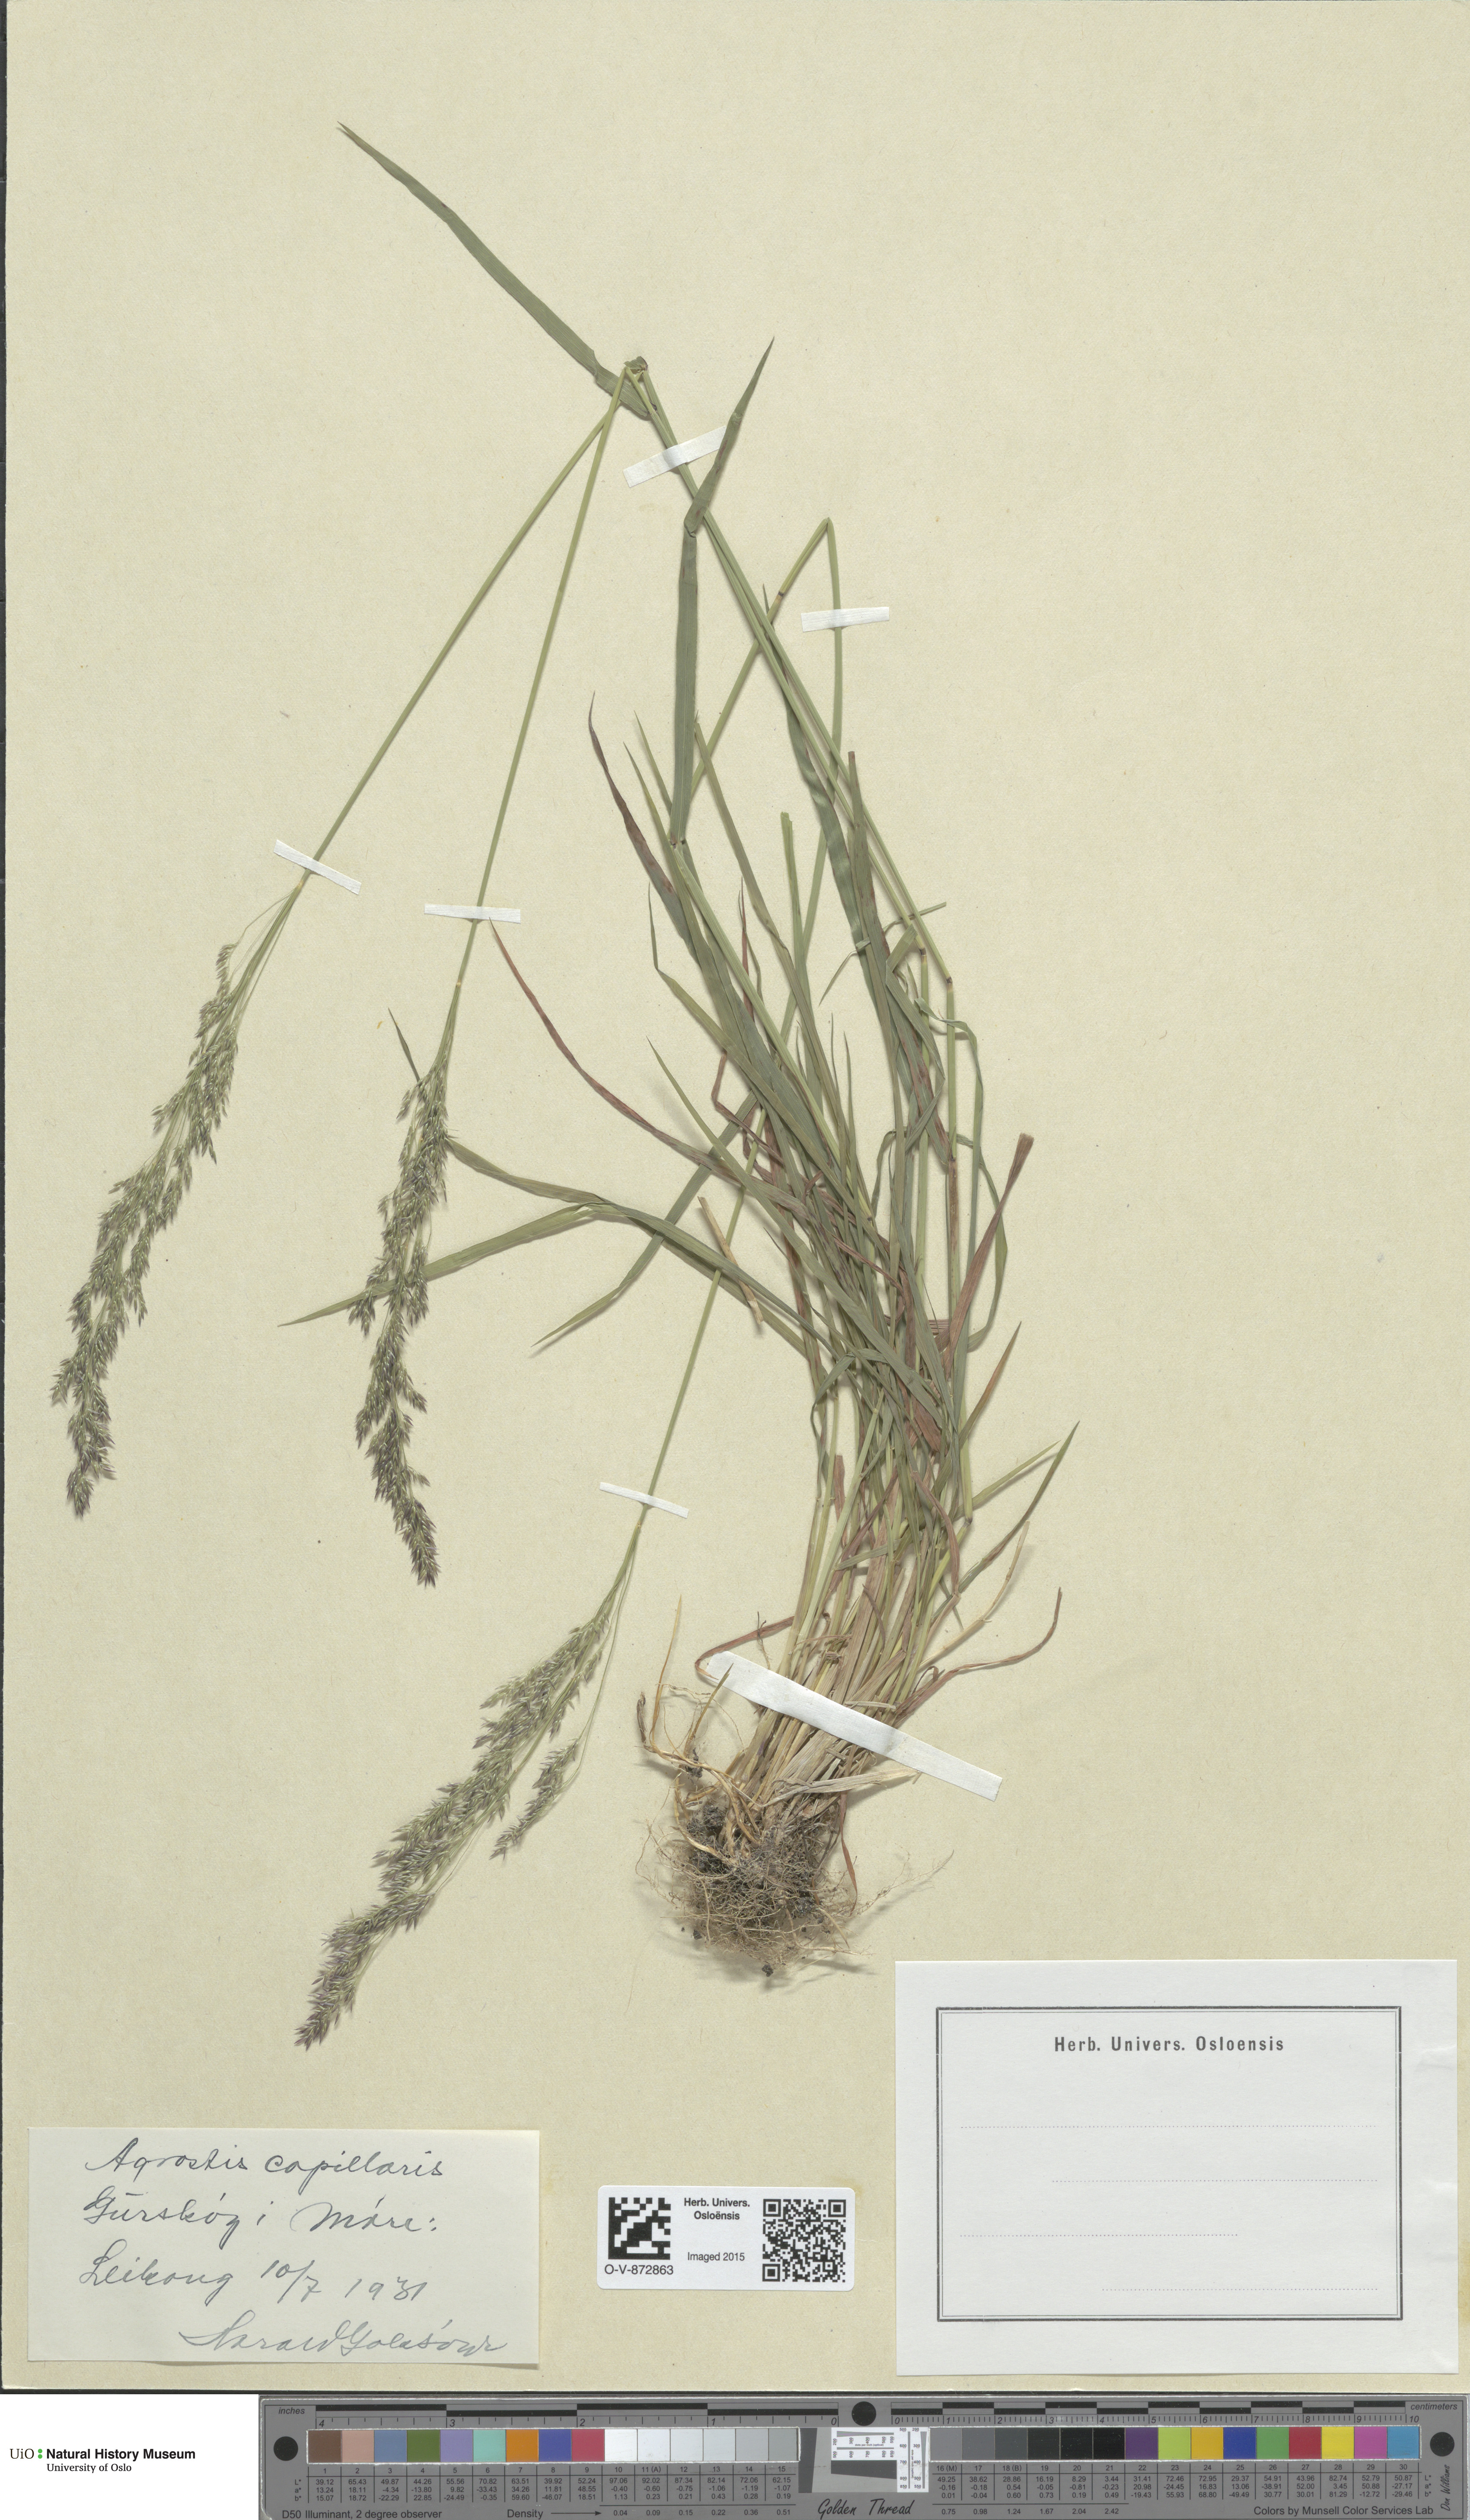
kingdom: Plantae
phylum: Tracheophyta
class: Liliopsida
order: Poales
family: Poaceae
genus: Agrostis
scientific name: Agrostis capillaris
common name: Colonial bentgrass
